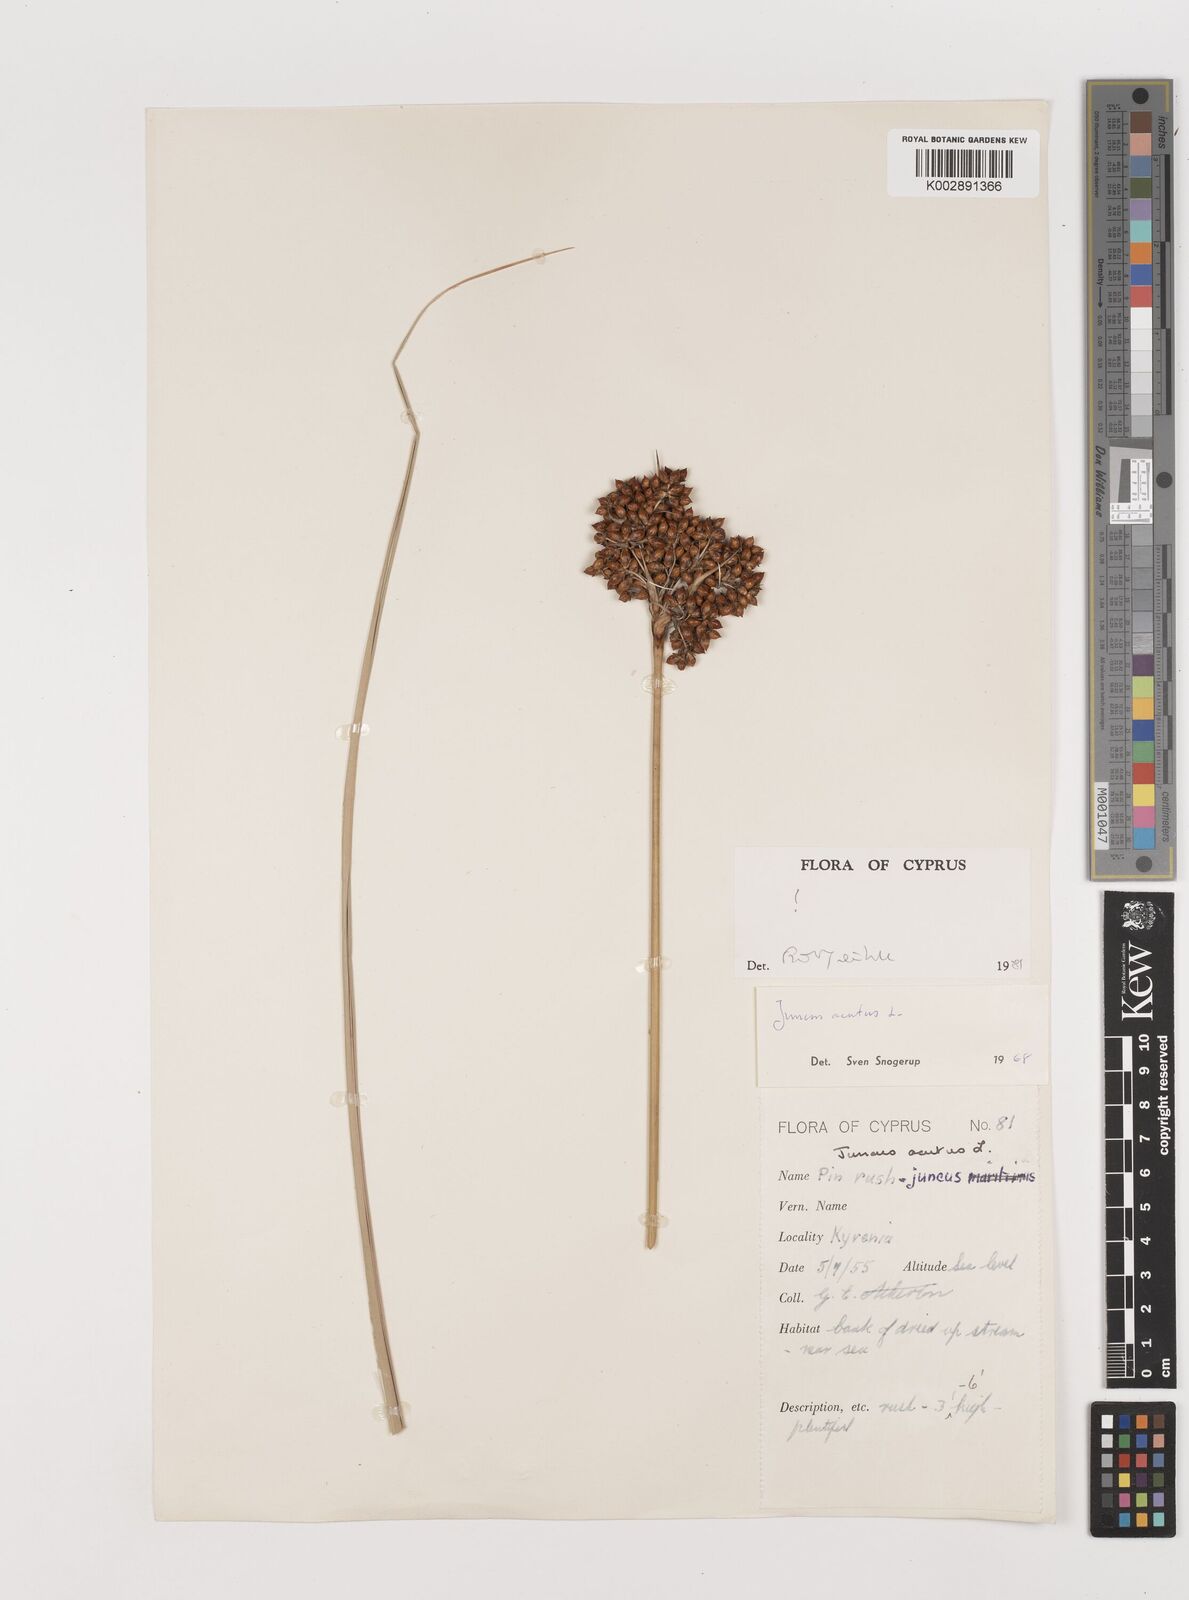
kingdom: Plantae
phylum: Tracheophyta
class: Liliopsida
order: Poales
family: Juncaceae
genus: Juncus
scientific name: Juncus acutus
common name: Sharp rush
